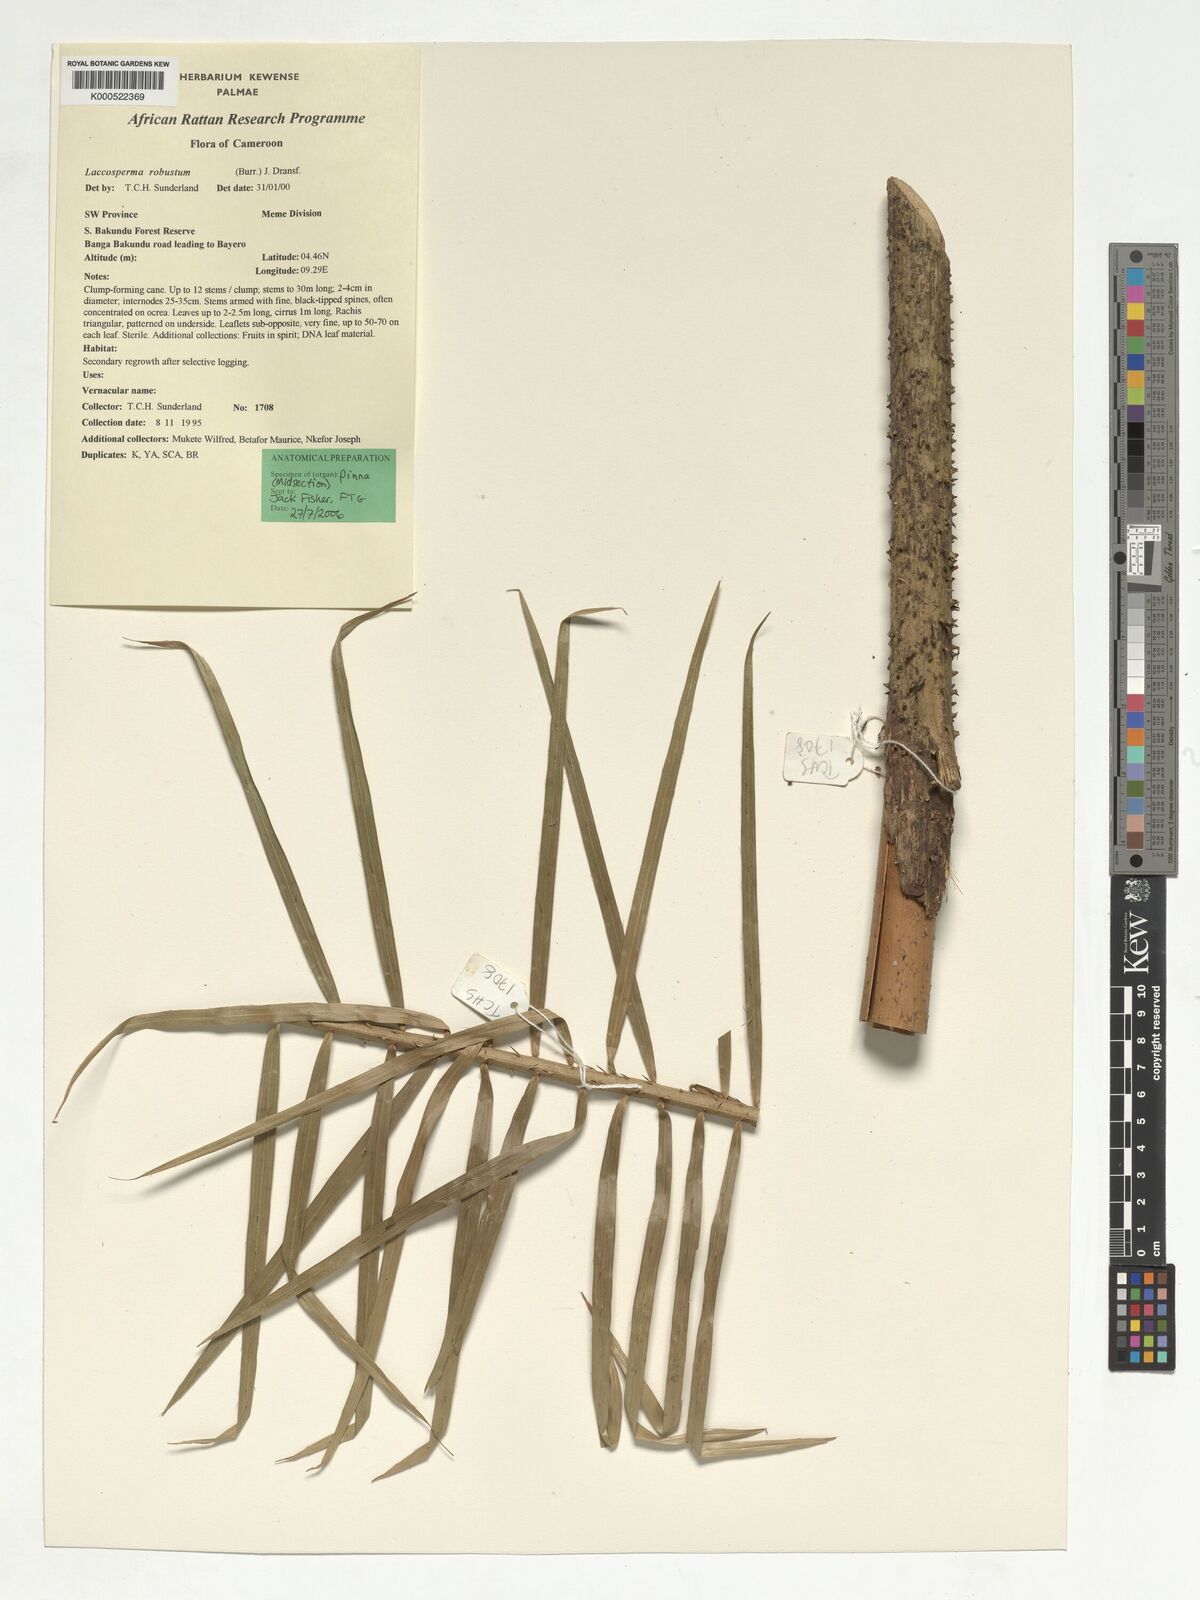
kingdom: Plantae
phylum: Tracheophyta
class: Liliopsida
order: Arecales
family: Arecaceae
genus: Laccosperma
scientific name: Laccosperma robustum
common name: Rattan
